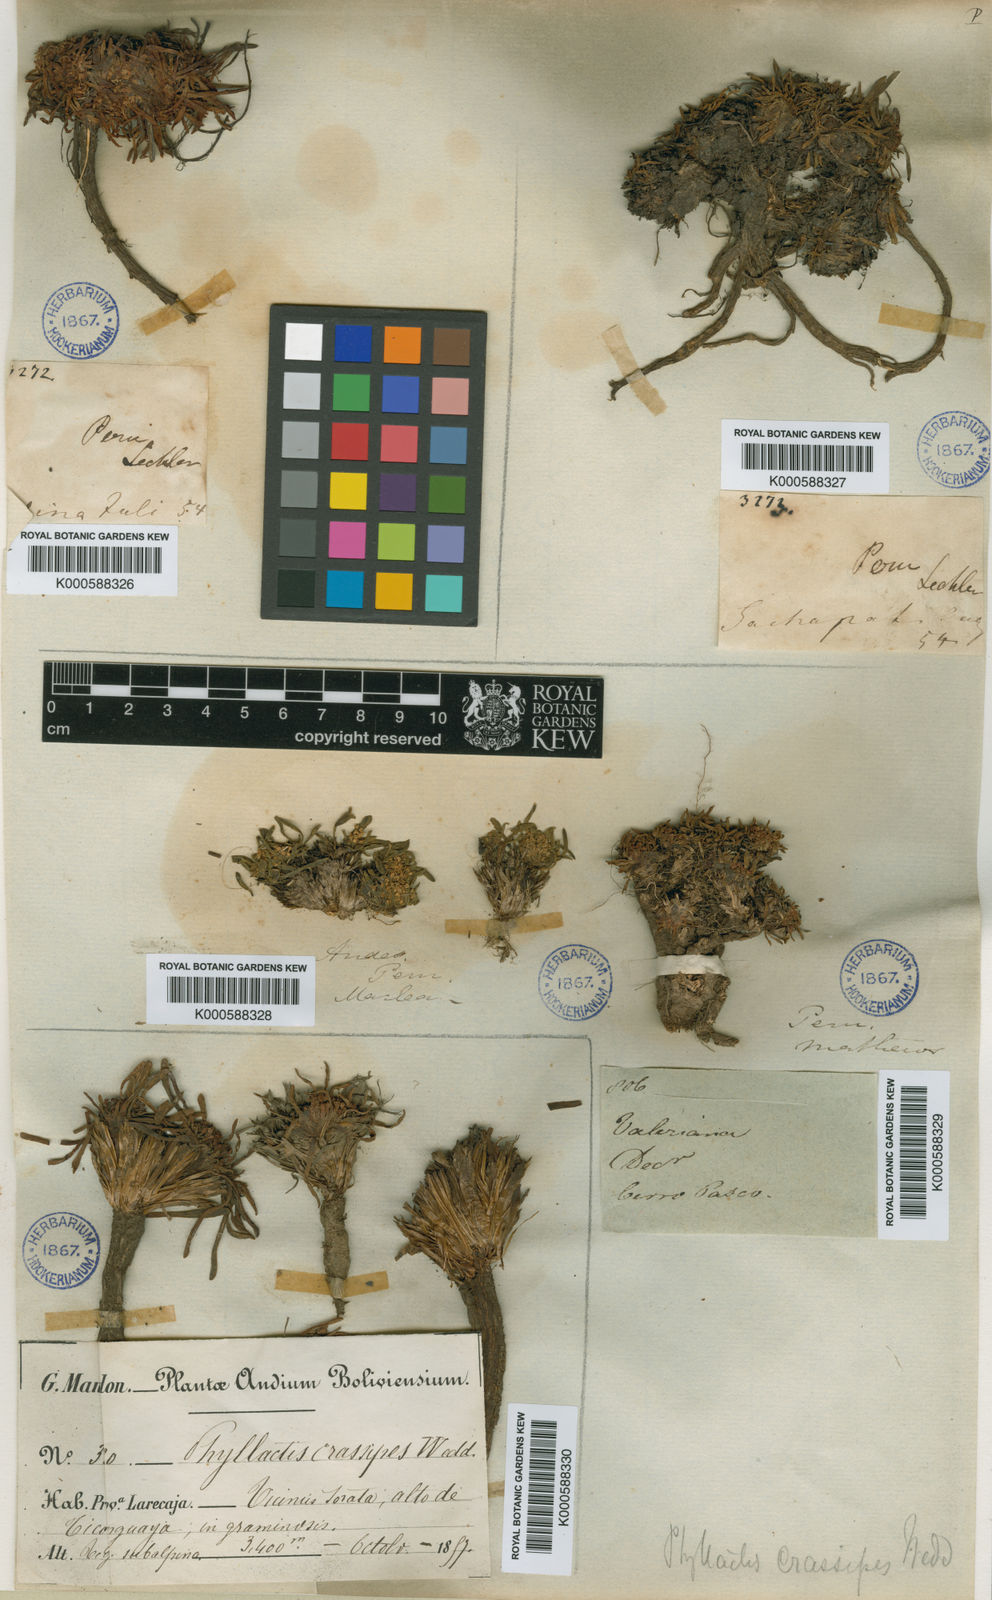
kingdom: Plantae
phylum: Tracheophyta
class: Magnoliopsida
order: Dipsacales
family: Caprifoliaceae
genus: Valeriana
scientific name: Valeriana niphobia
